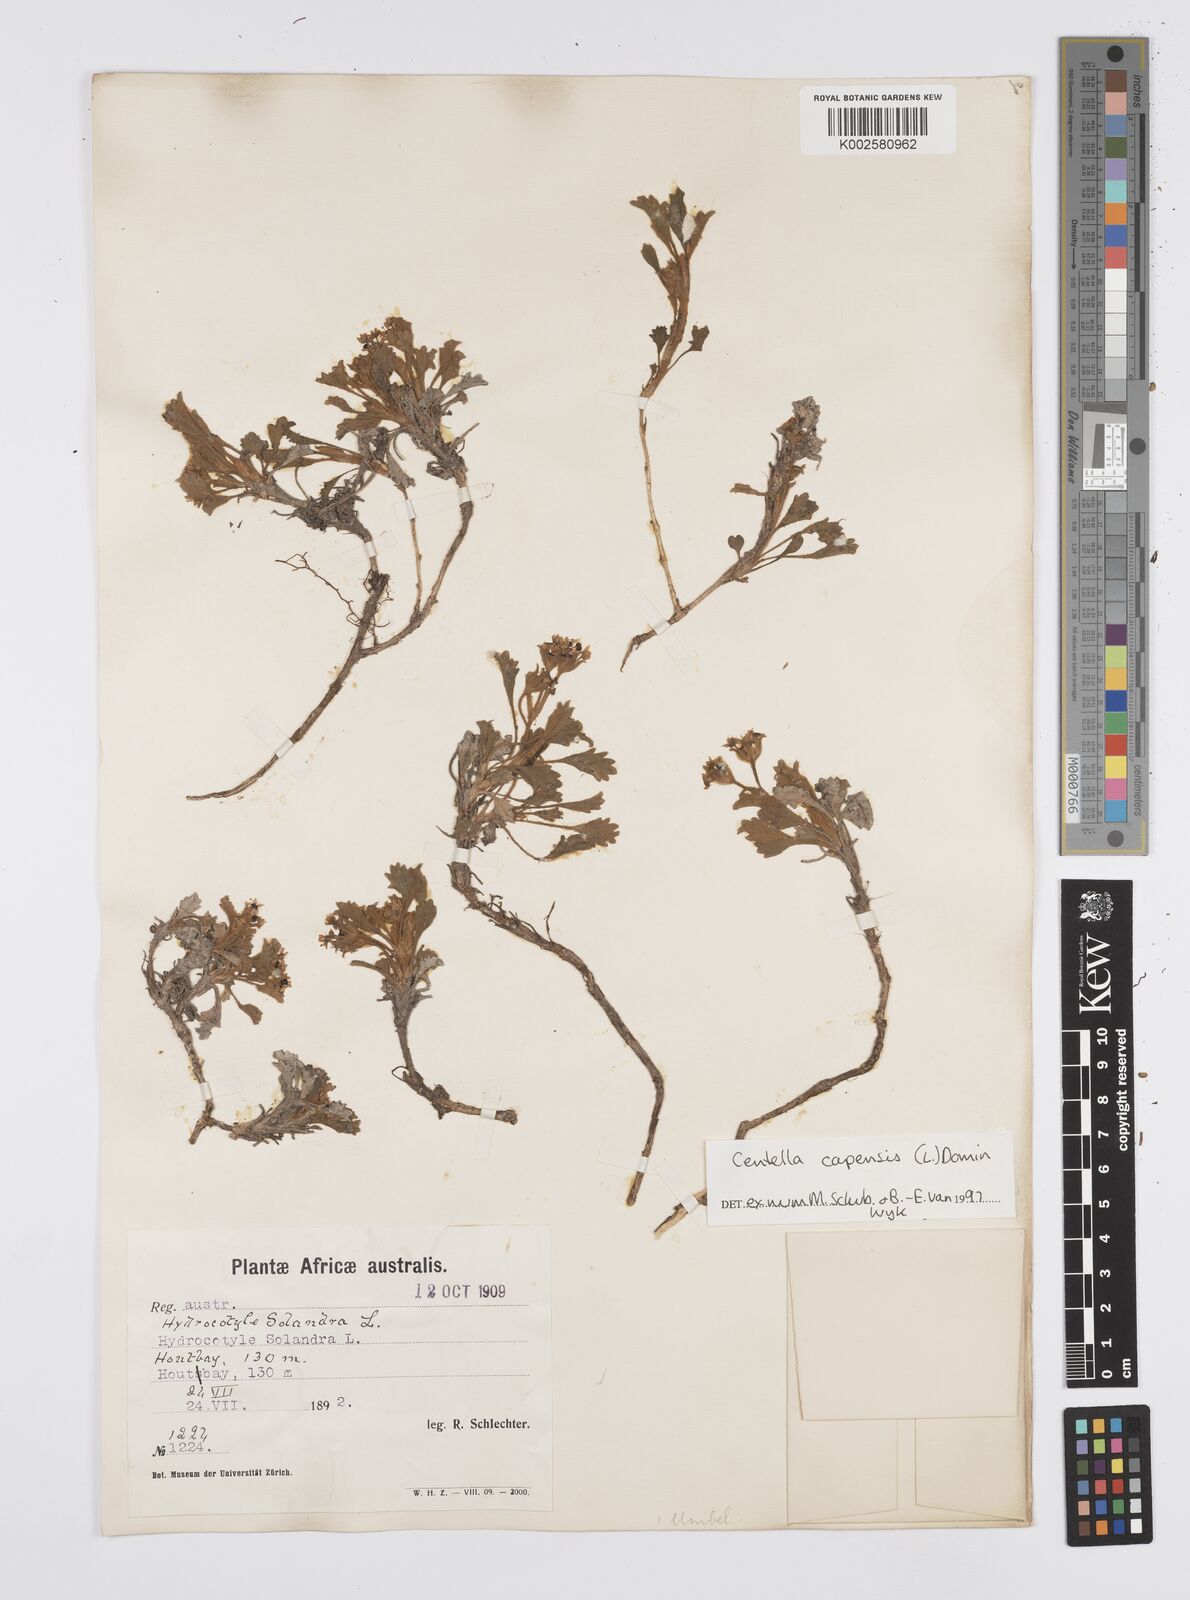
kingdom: Plantae
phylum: Tracheophyta
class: Magnoliopsida
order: Apiales
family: Apiaceae
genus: Centella
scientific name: Centella capensis
